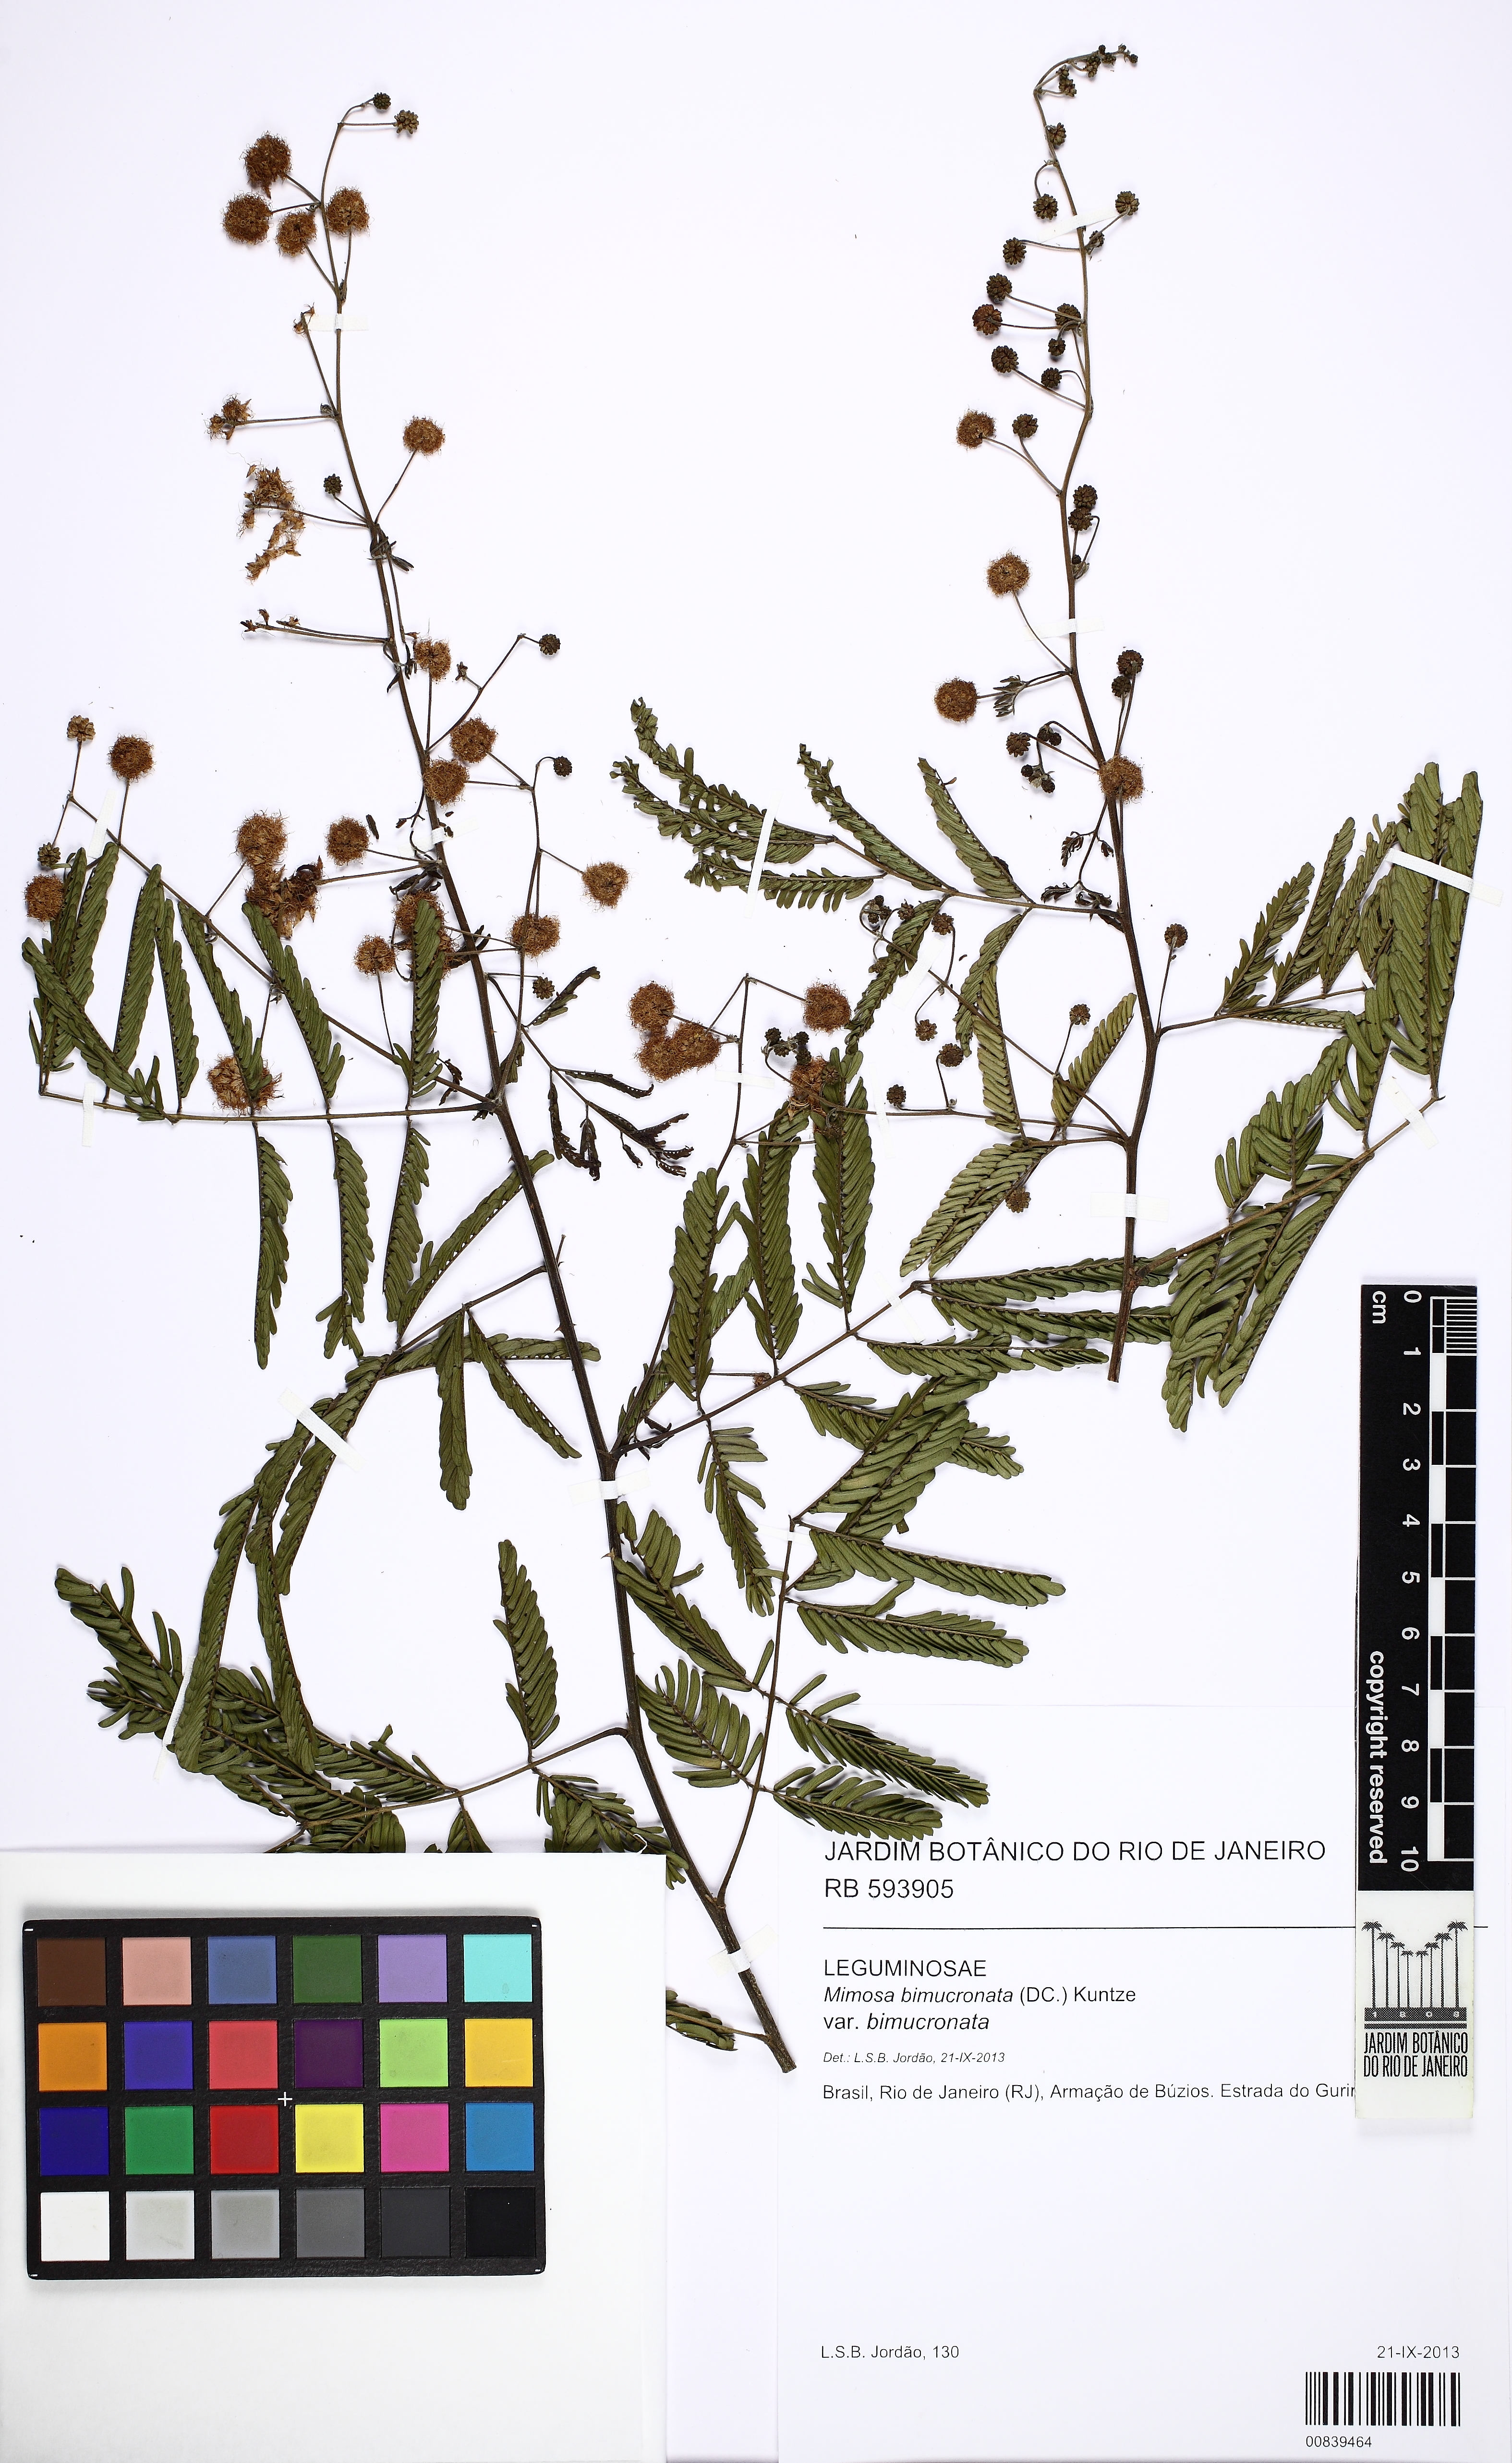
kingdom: Plantae
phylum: Tracheophyta
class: Magnoliopsida
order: Fabales
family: Fabaceae
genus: Mimosa
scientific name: Mimosa bimucronata
